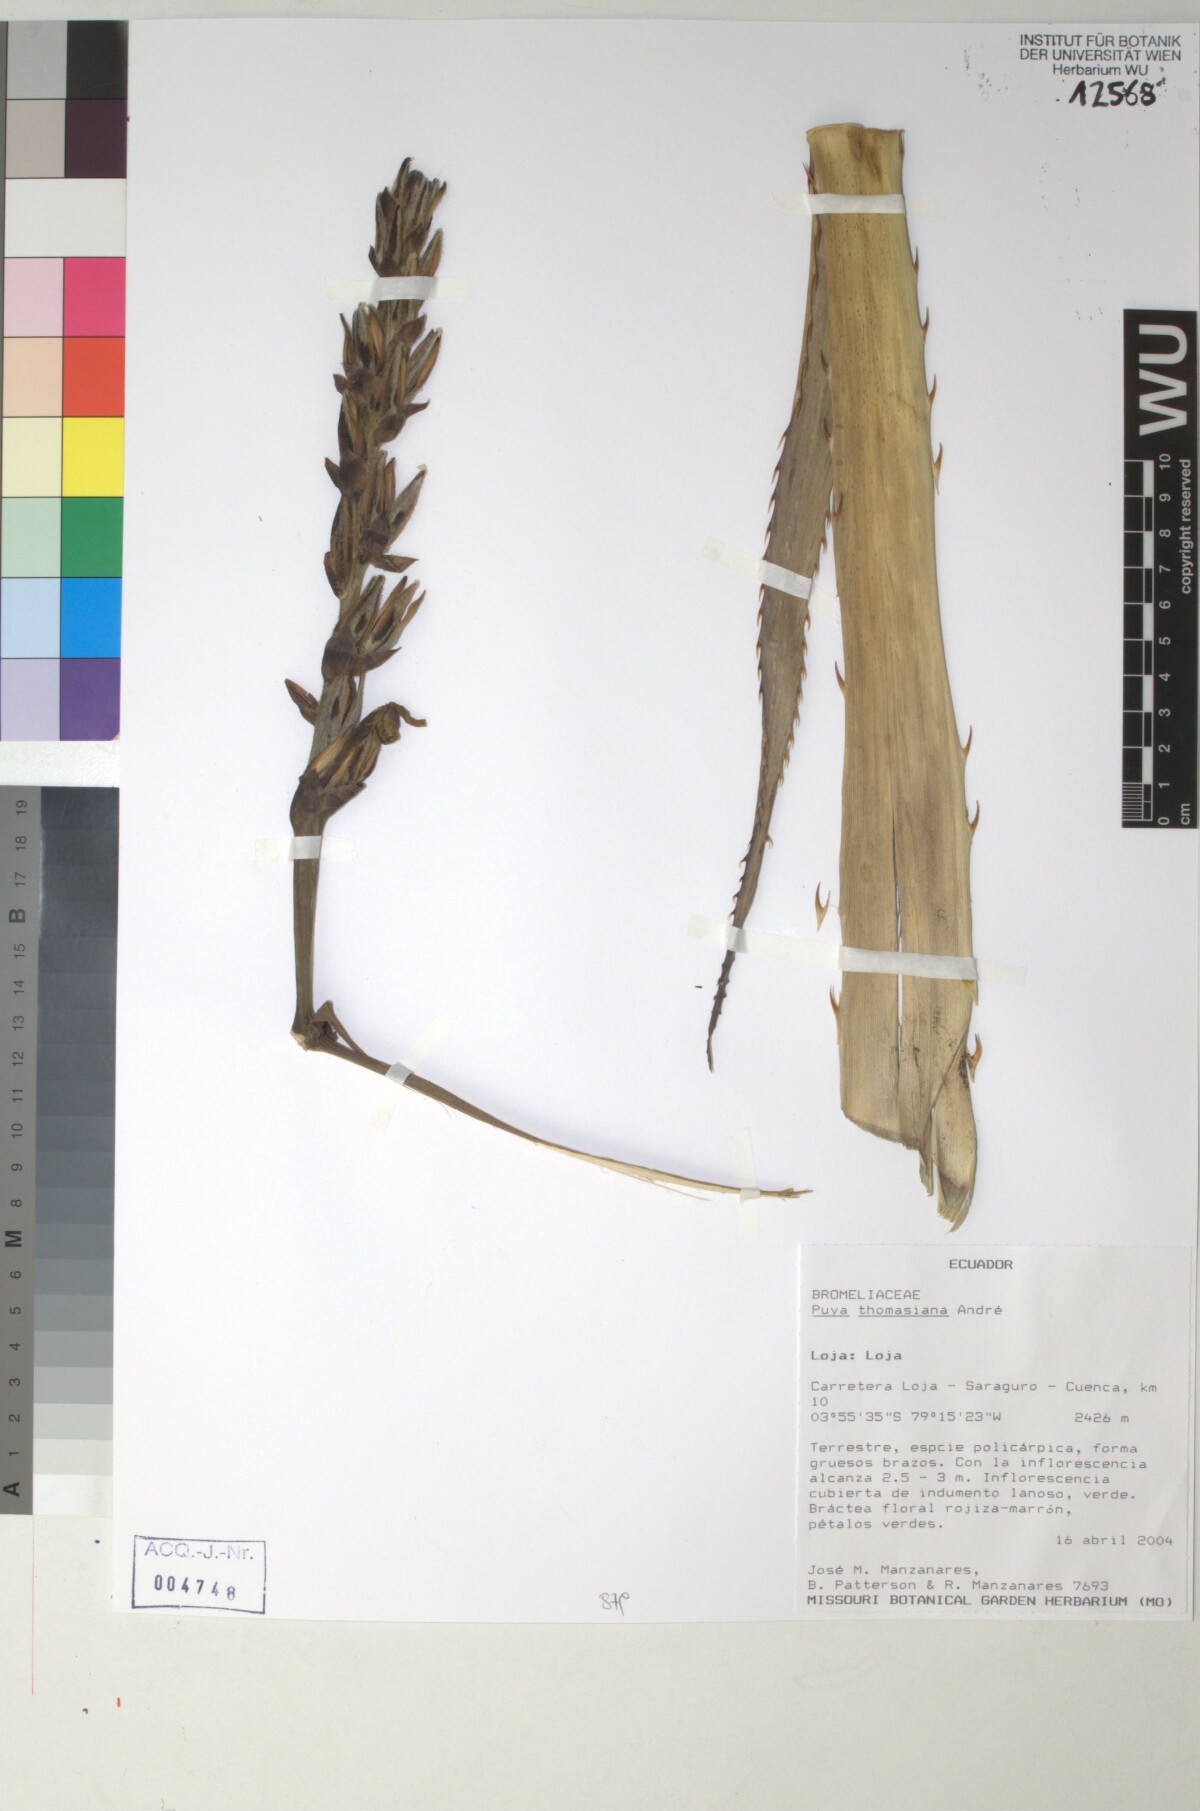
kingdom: Plantae
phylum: Tracheophyta
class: Liliopsida
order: Poales
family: Bromeliaceae
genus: Puya
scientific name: Puya thomasiana
